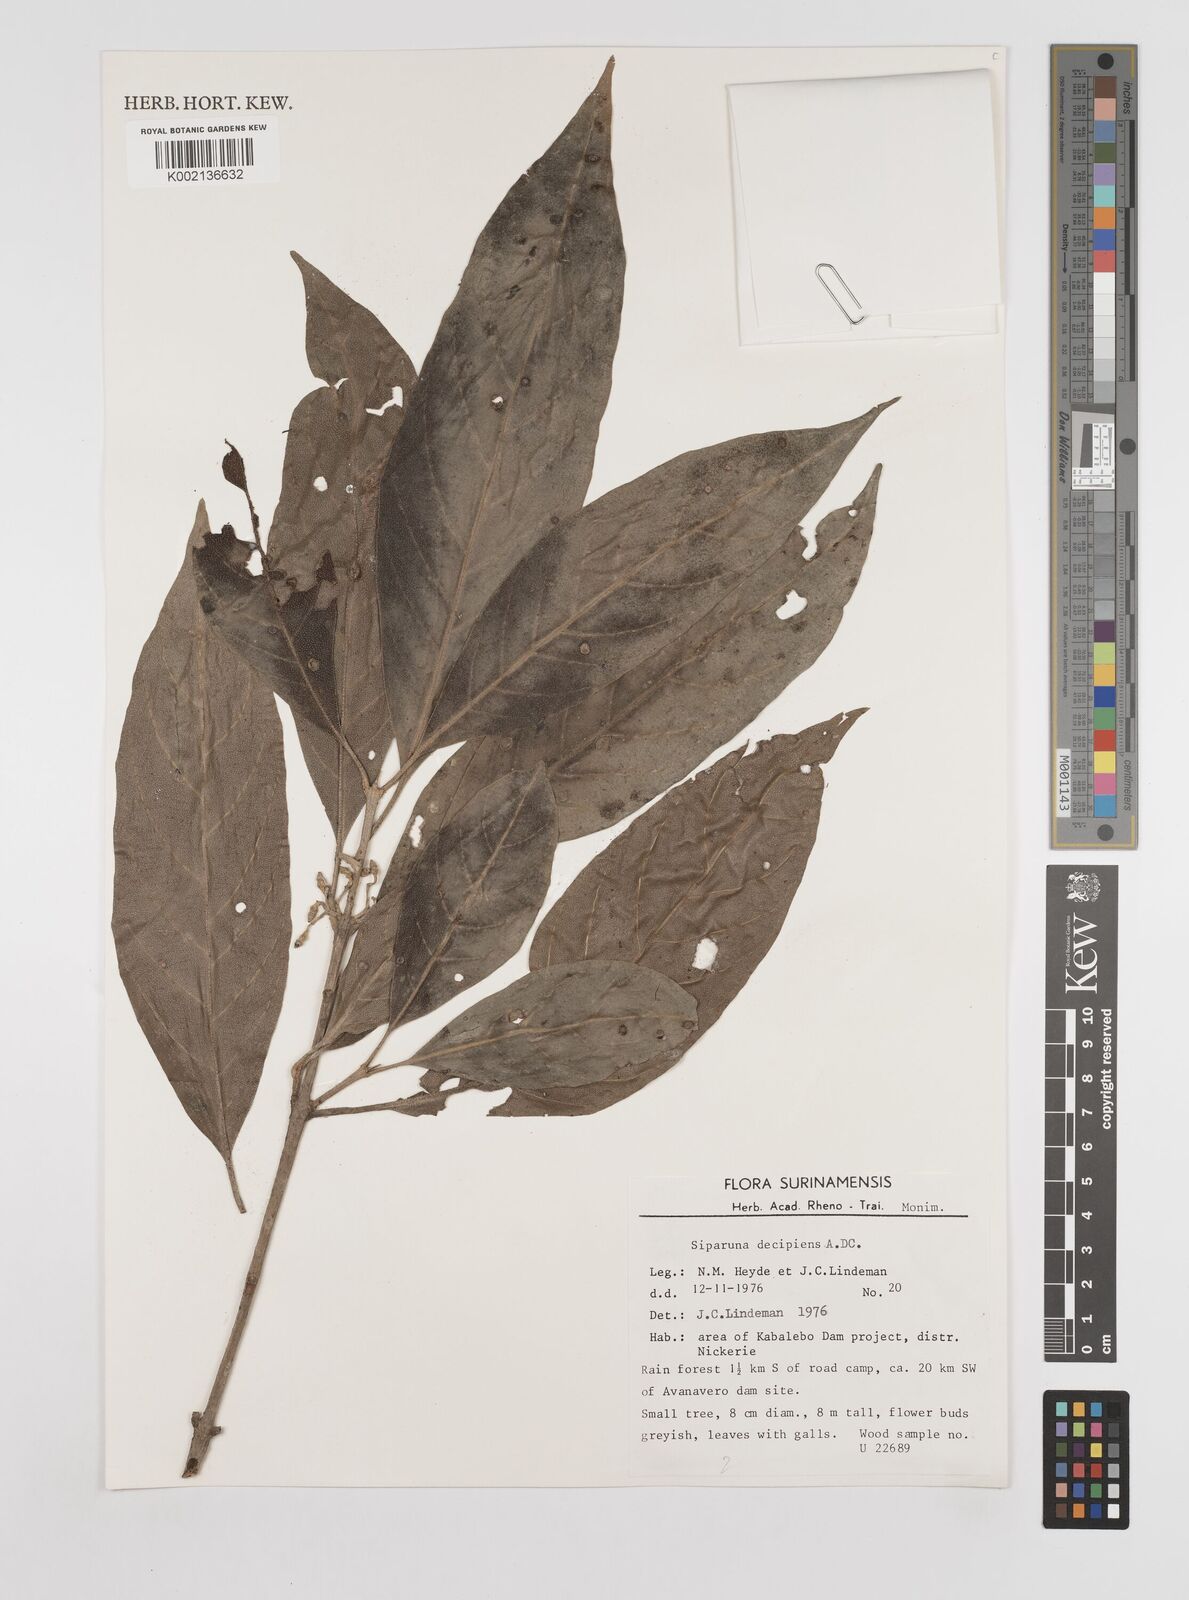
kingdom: Plantae
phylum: Tracheophyta
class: Magnoliopsida
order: Laurales
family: Siparunaceae
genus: Siparuna
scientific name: Siparuna decipiens
